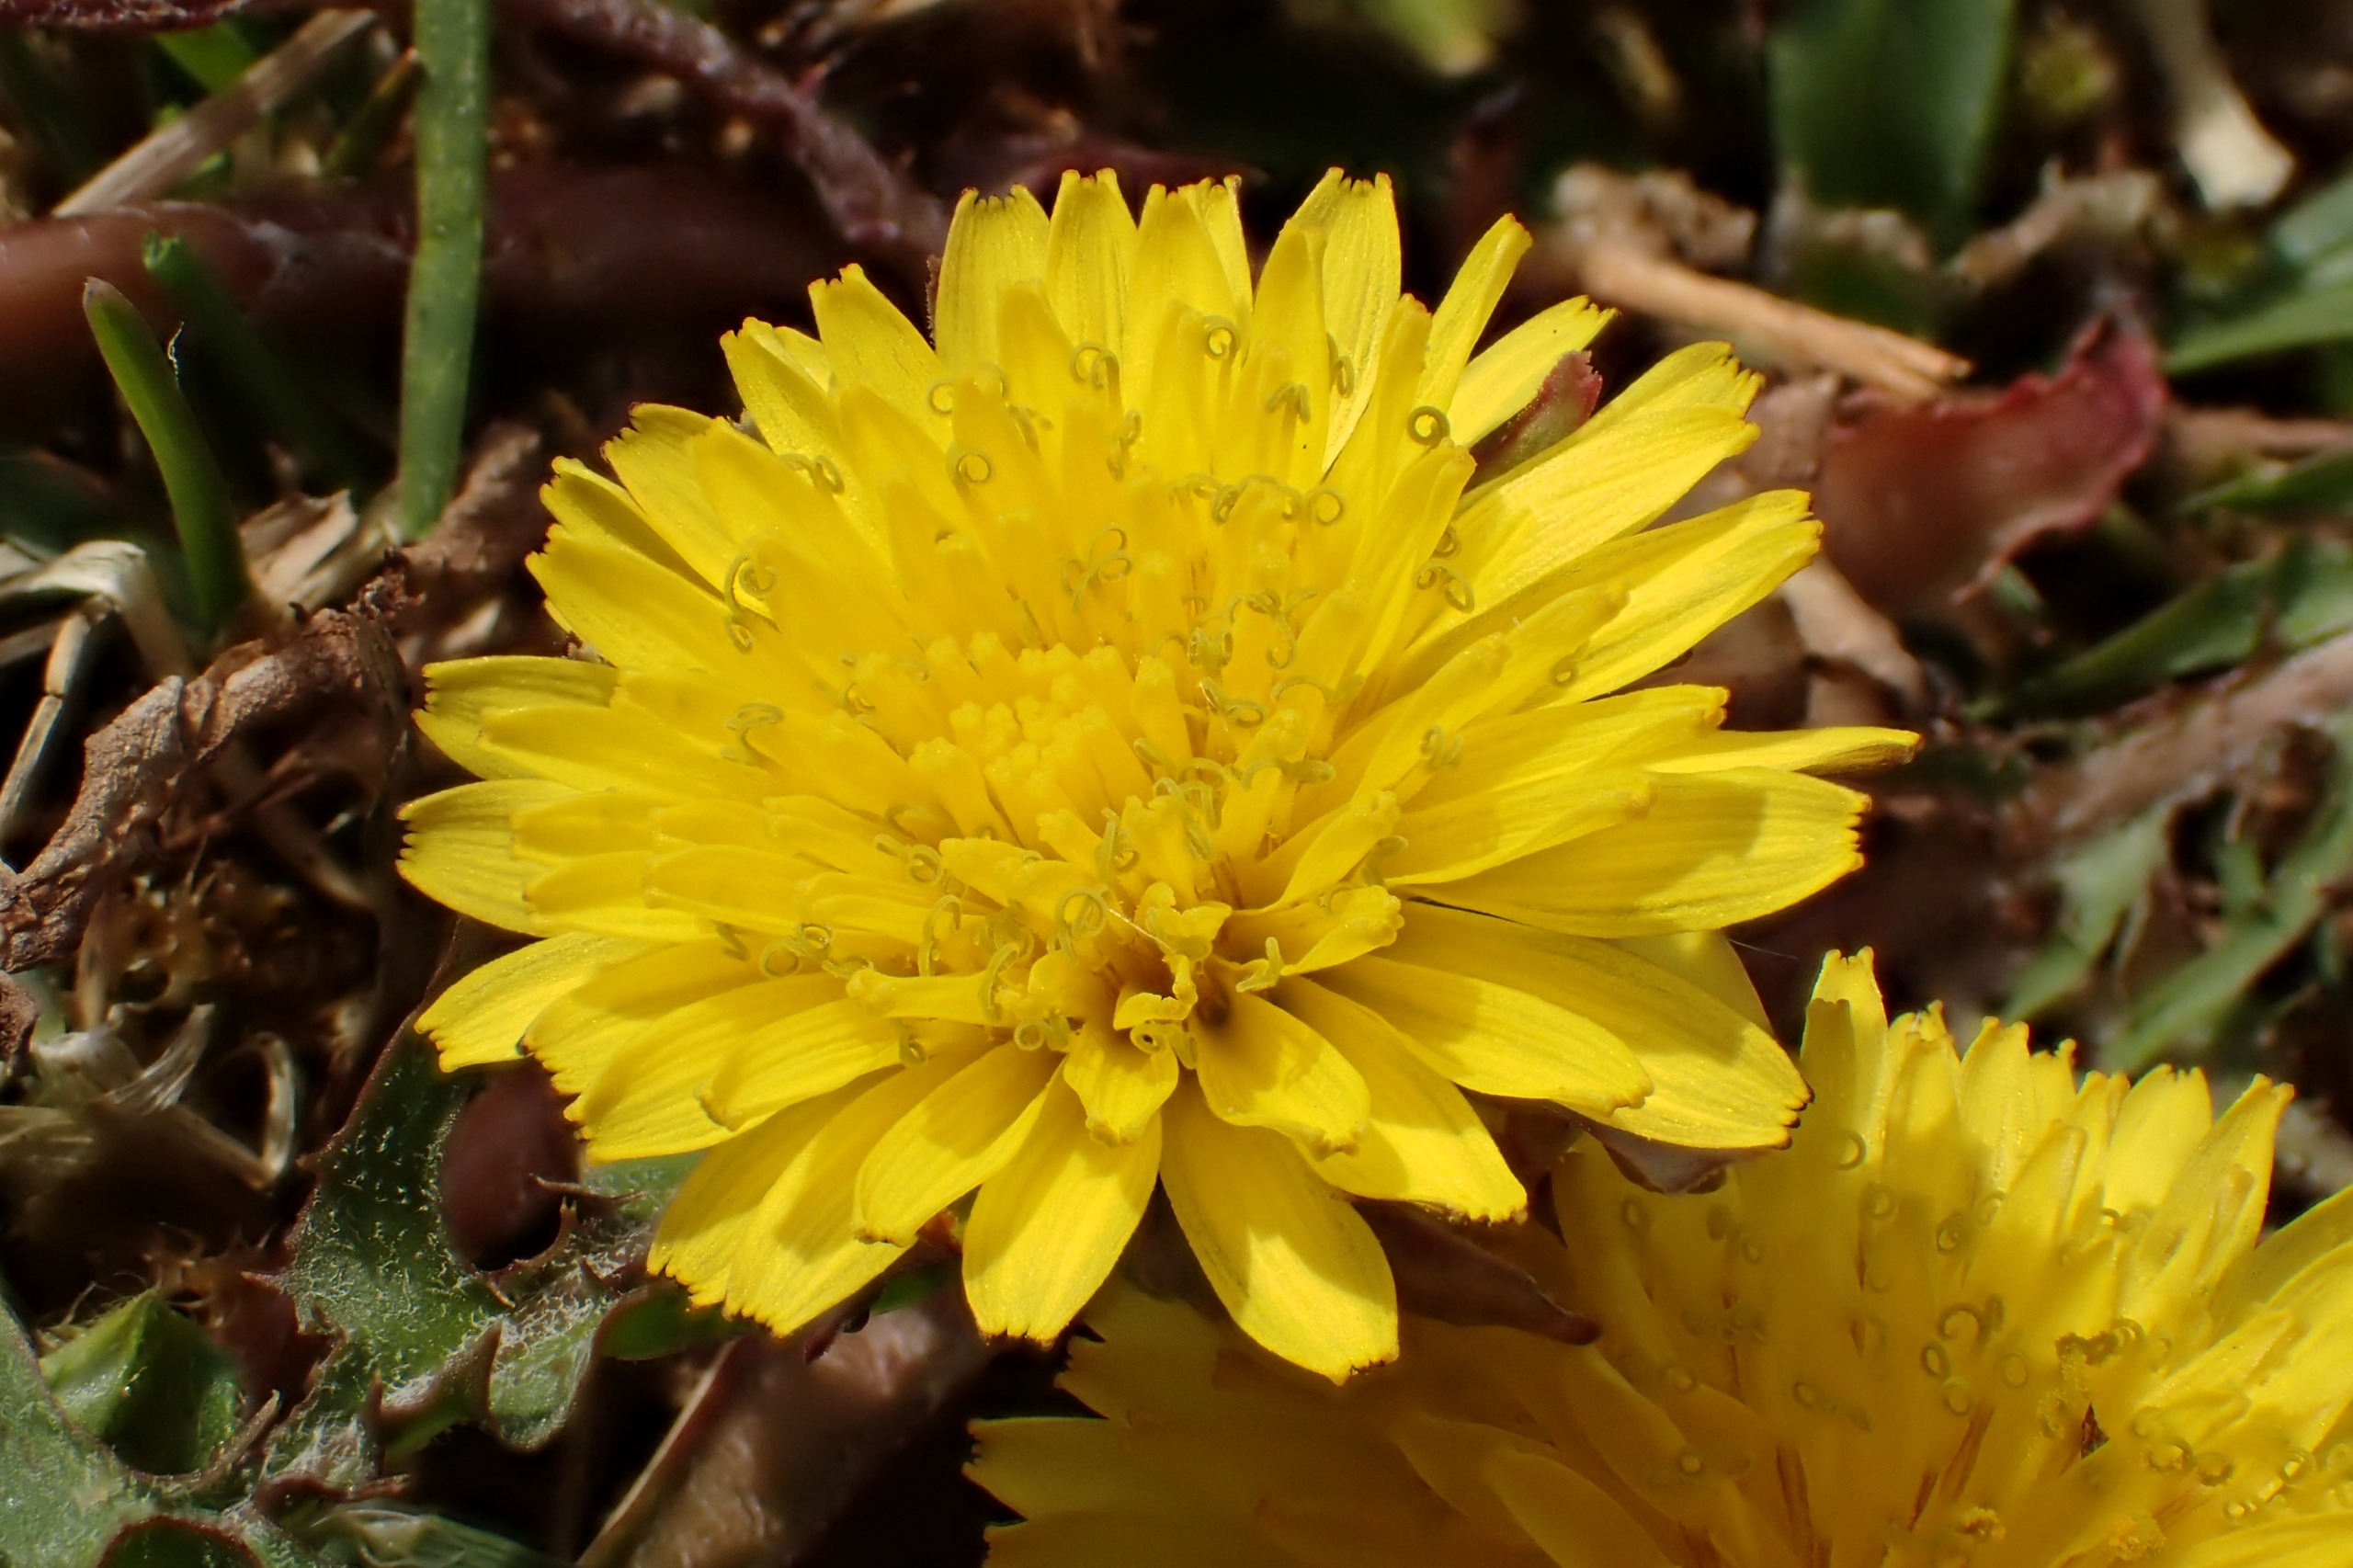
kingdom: Plantae
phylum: Tracheophyta
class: Magnoliopsida
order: Asterales
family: Asteraceae
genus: Taraxacum
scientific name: Taraxacum isthmicola
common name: Karelsk sandmælkebøtte
